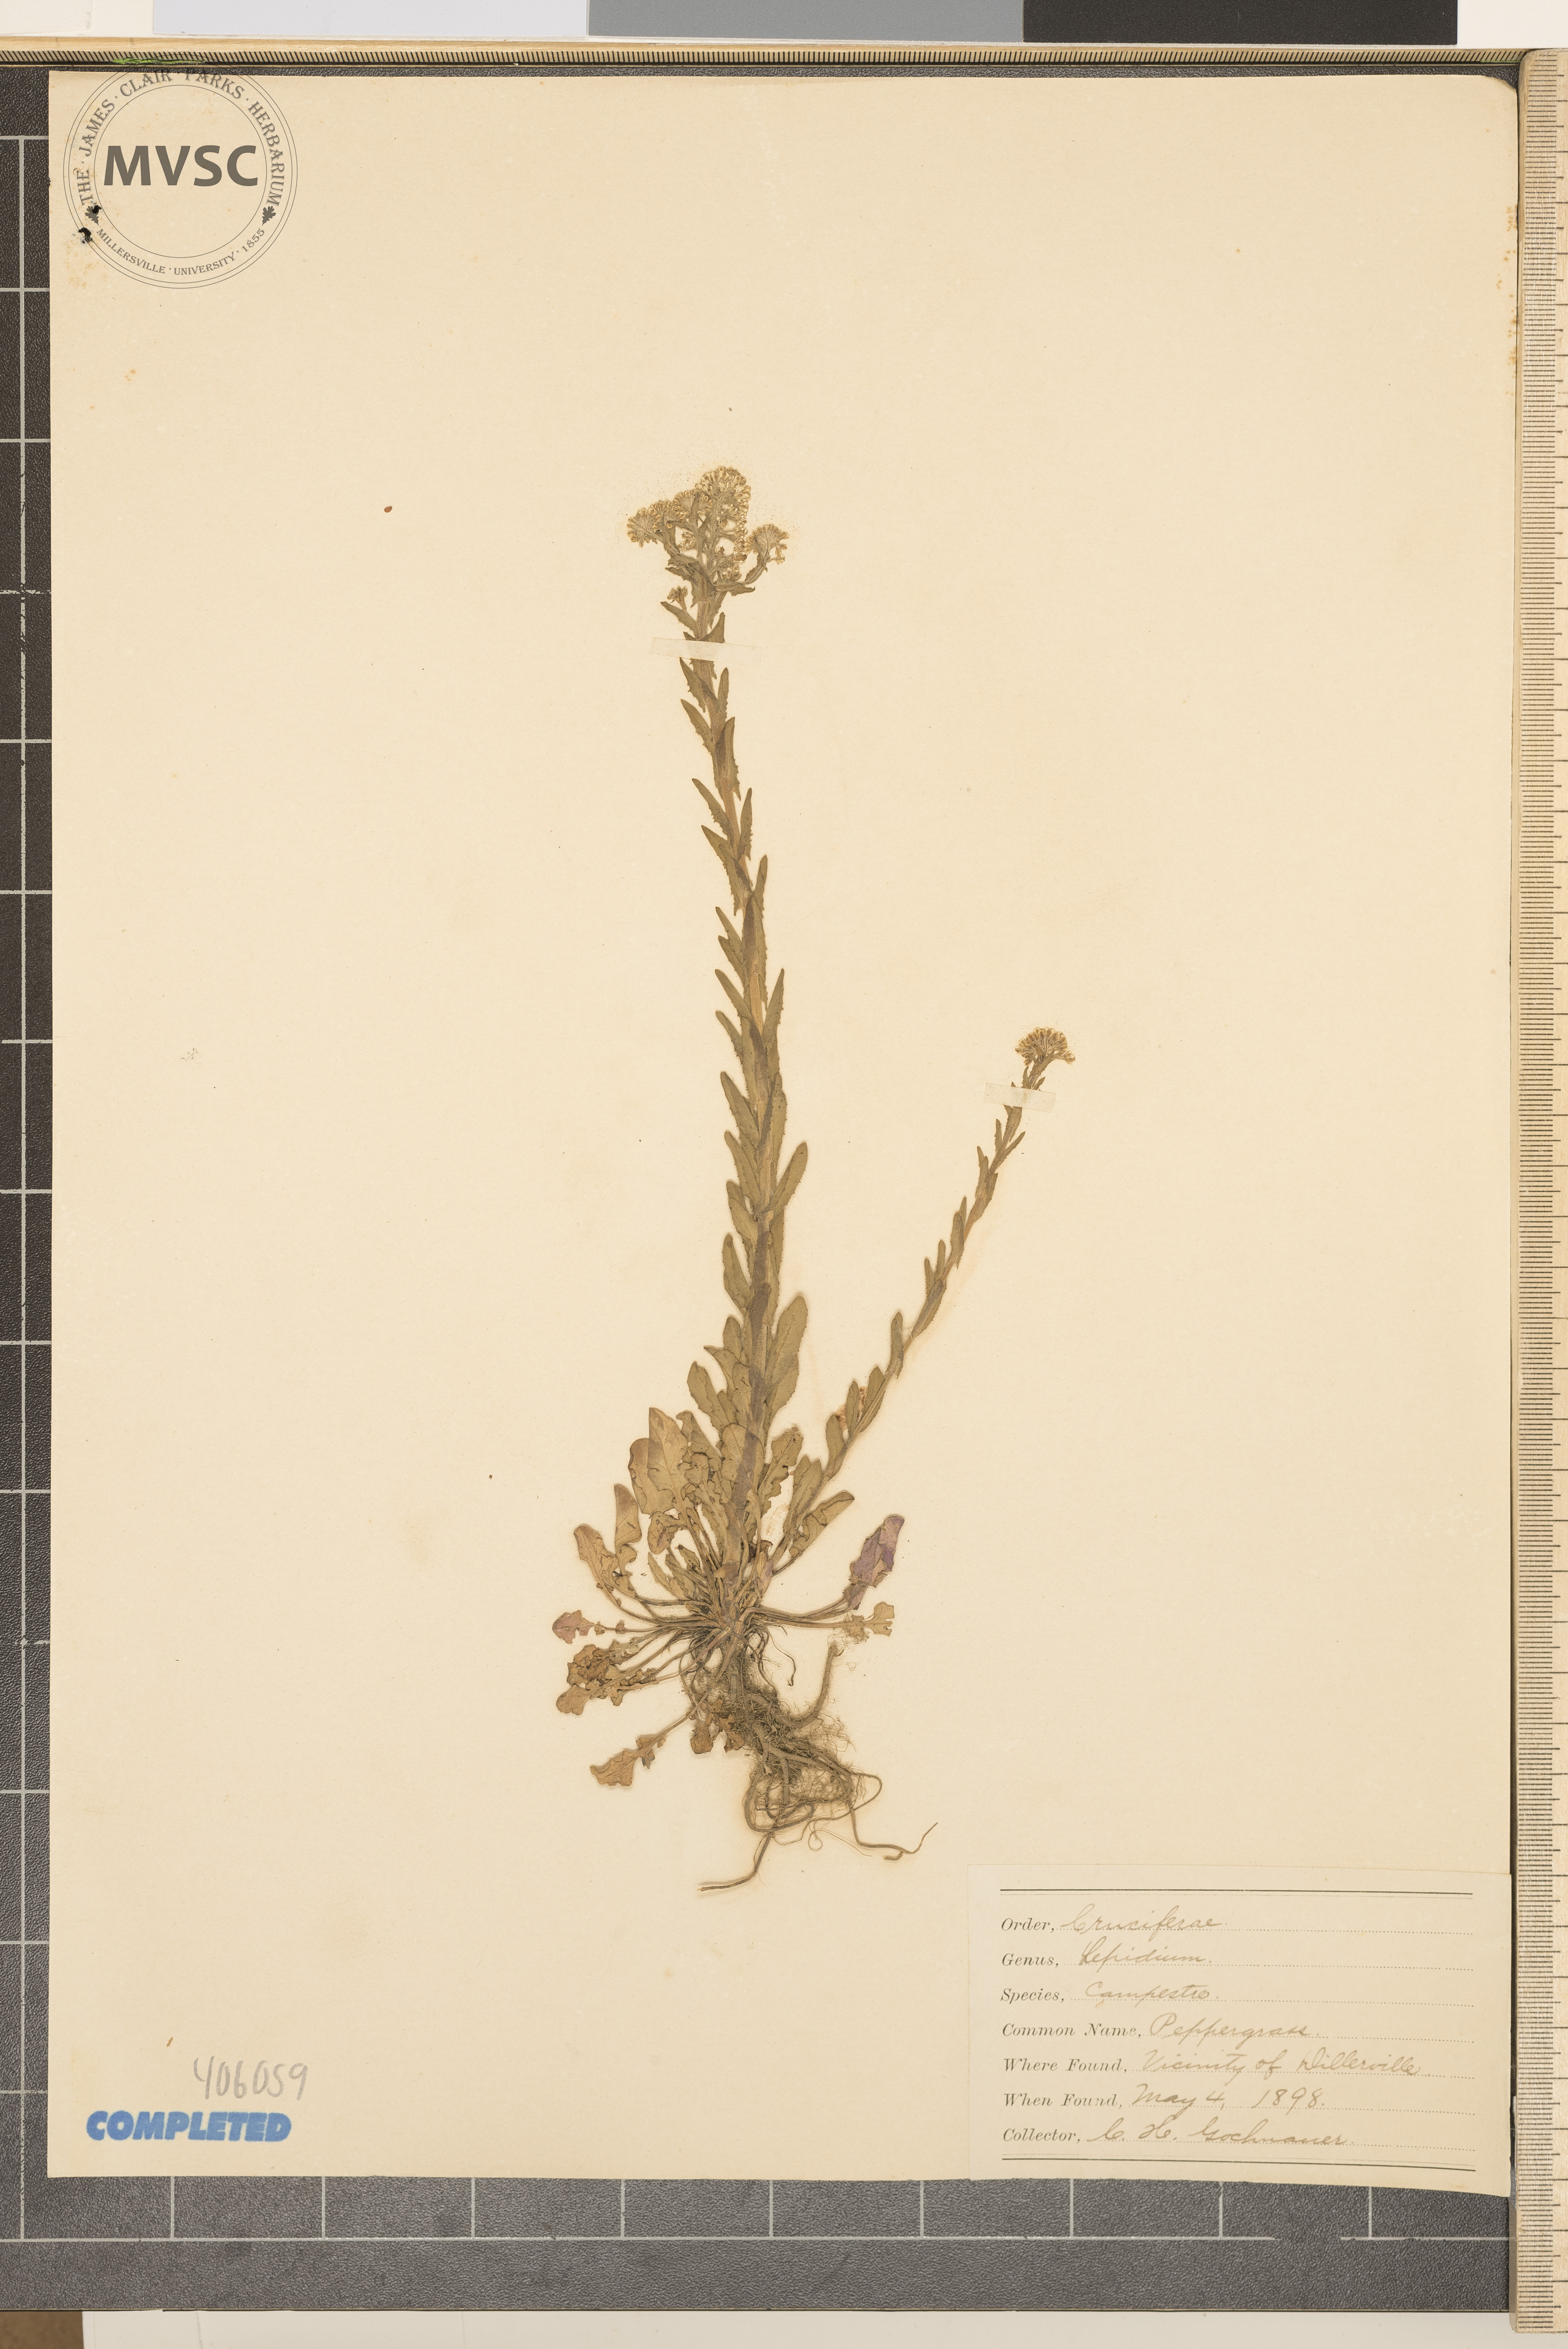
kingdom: Plantae
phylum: Tracheophyta
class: Magnoliopsida
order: Brassicales
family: Brassicaceae
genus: Lepidium
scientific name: Lepidium campestre
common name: field pepperweed
